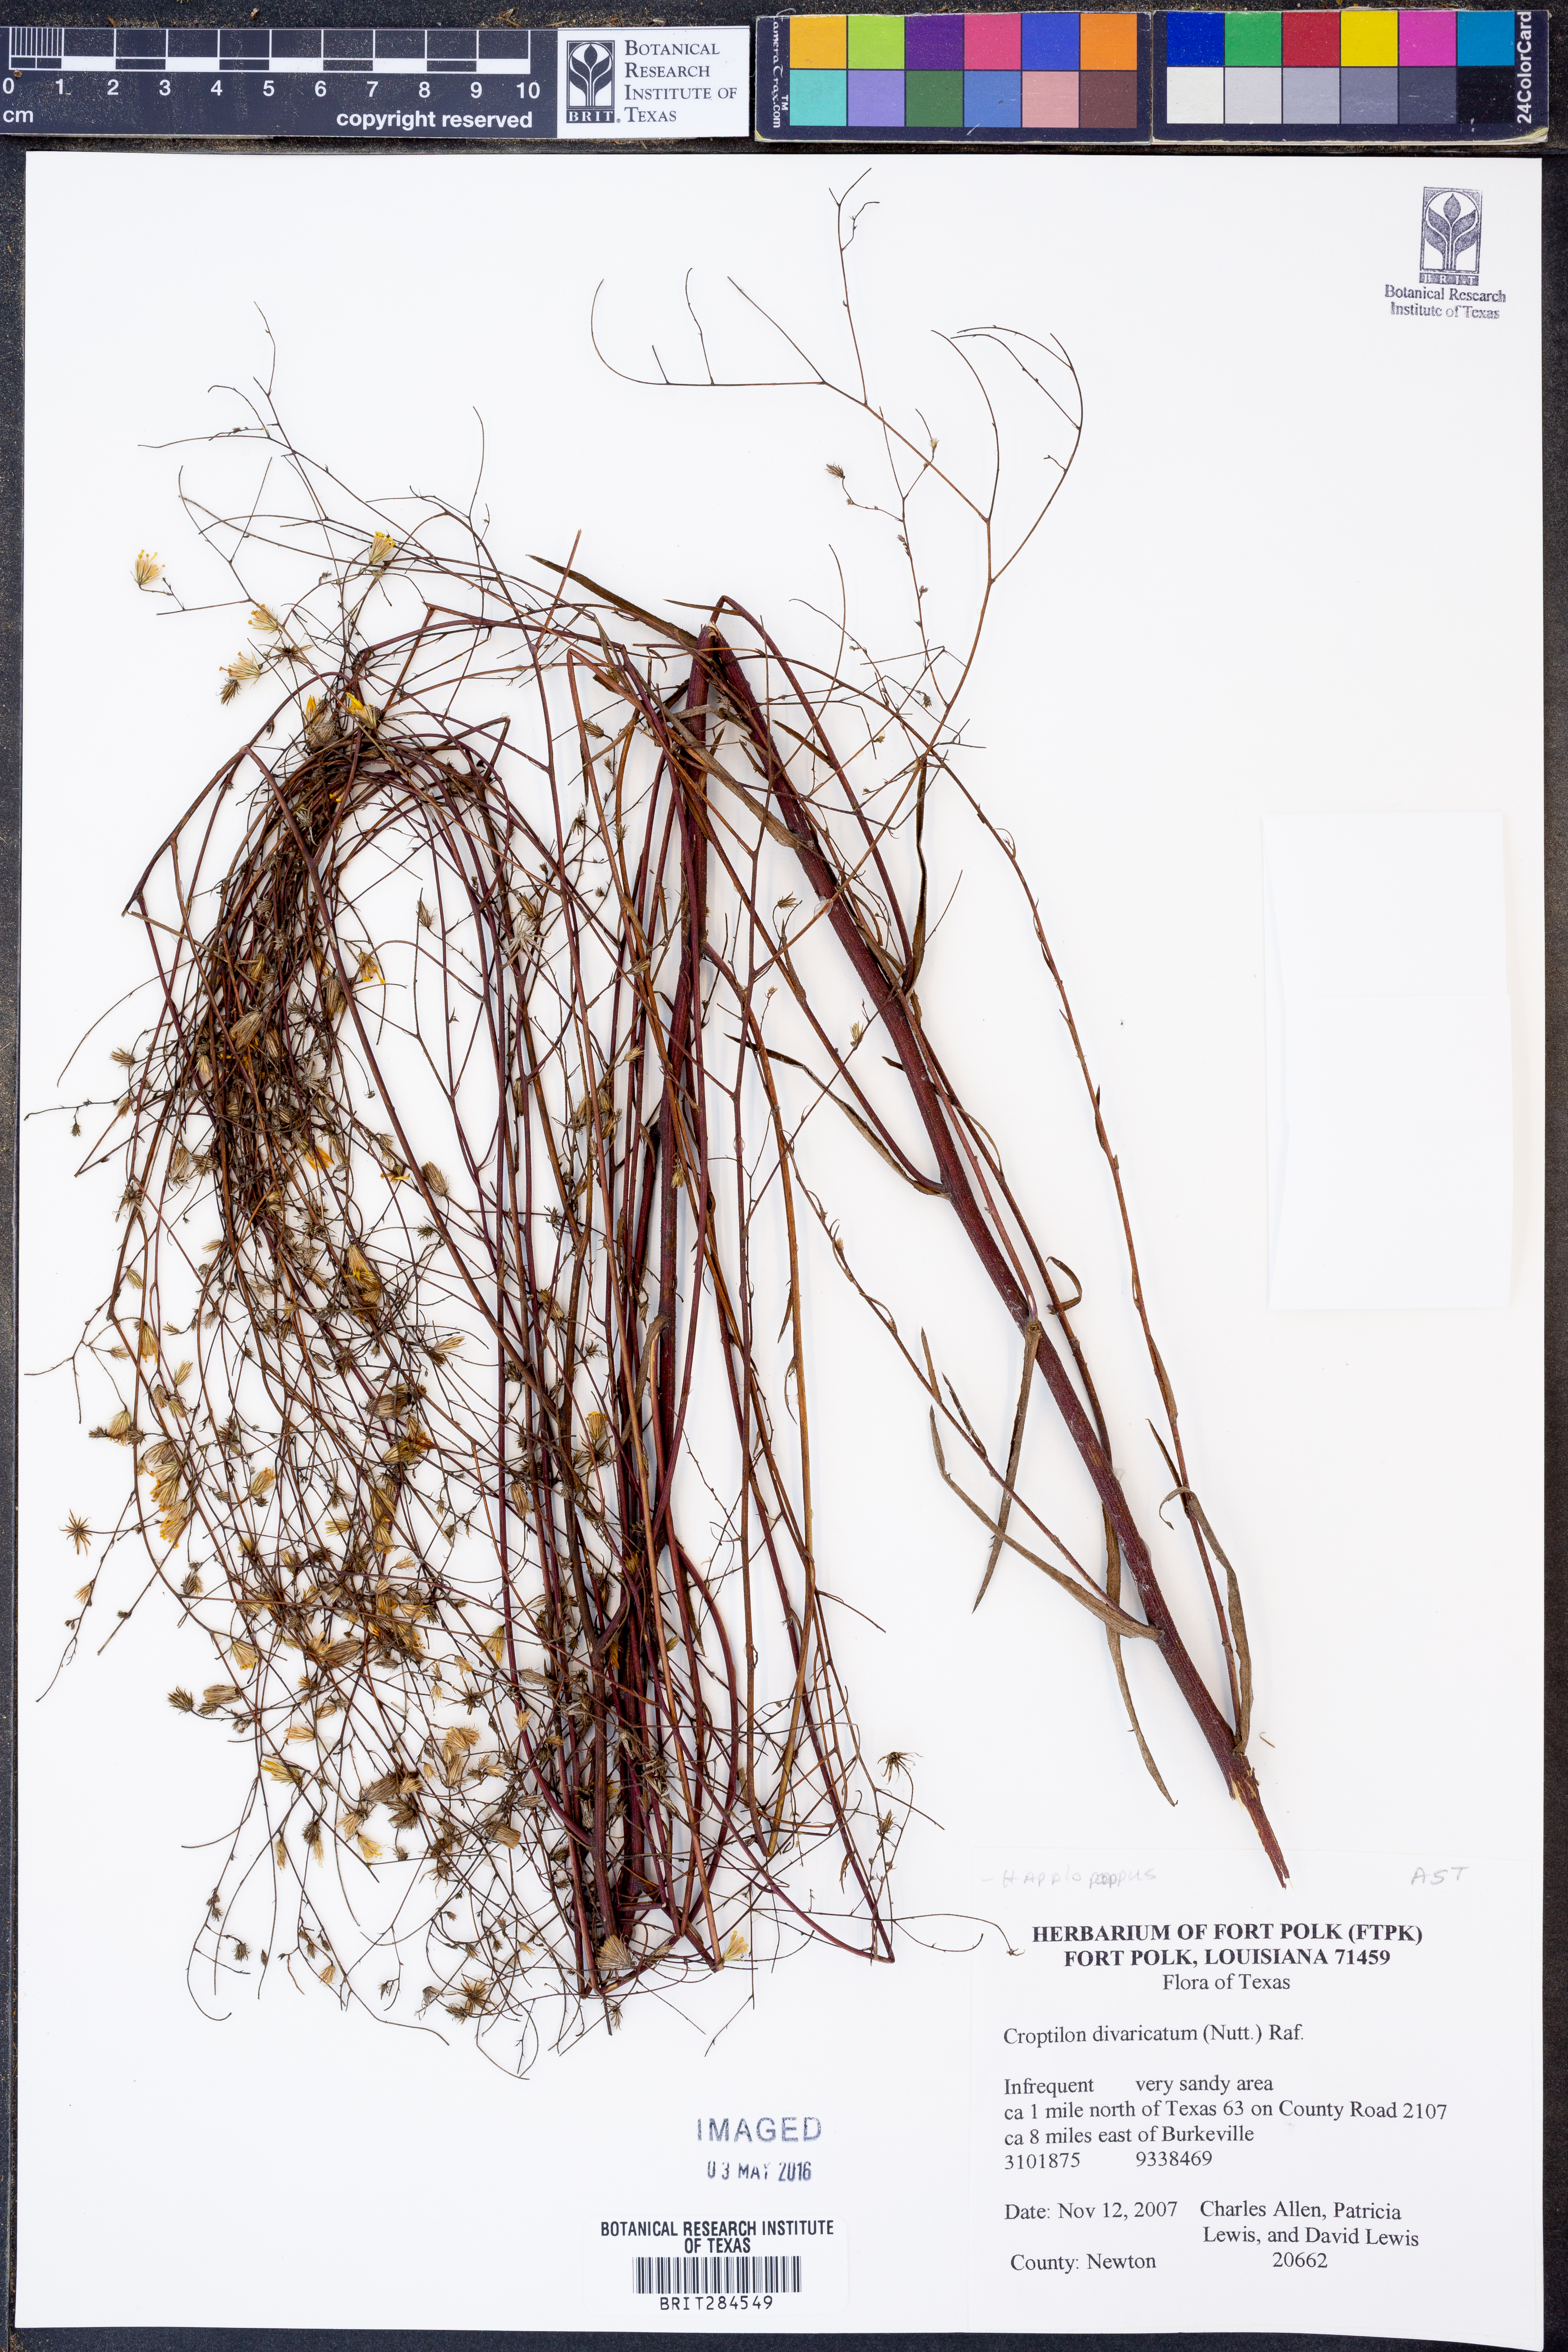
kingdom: Plantae
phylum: Tracheophyta
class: Magnoliopsida
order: Asterales
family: Asteraceae
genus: Croptilon
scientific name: Croptilon divaricatum
